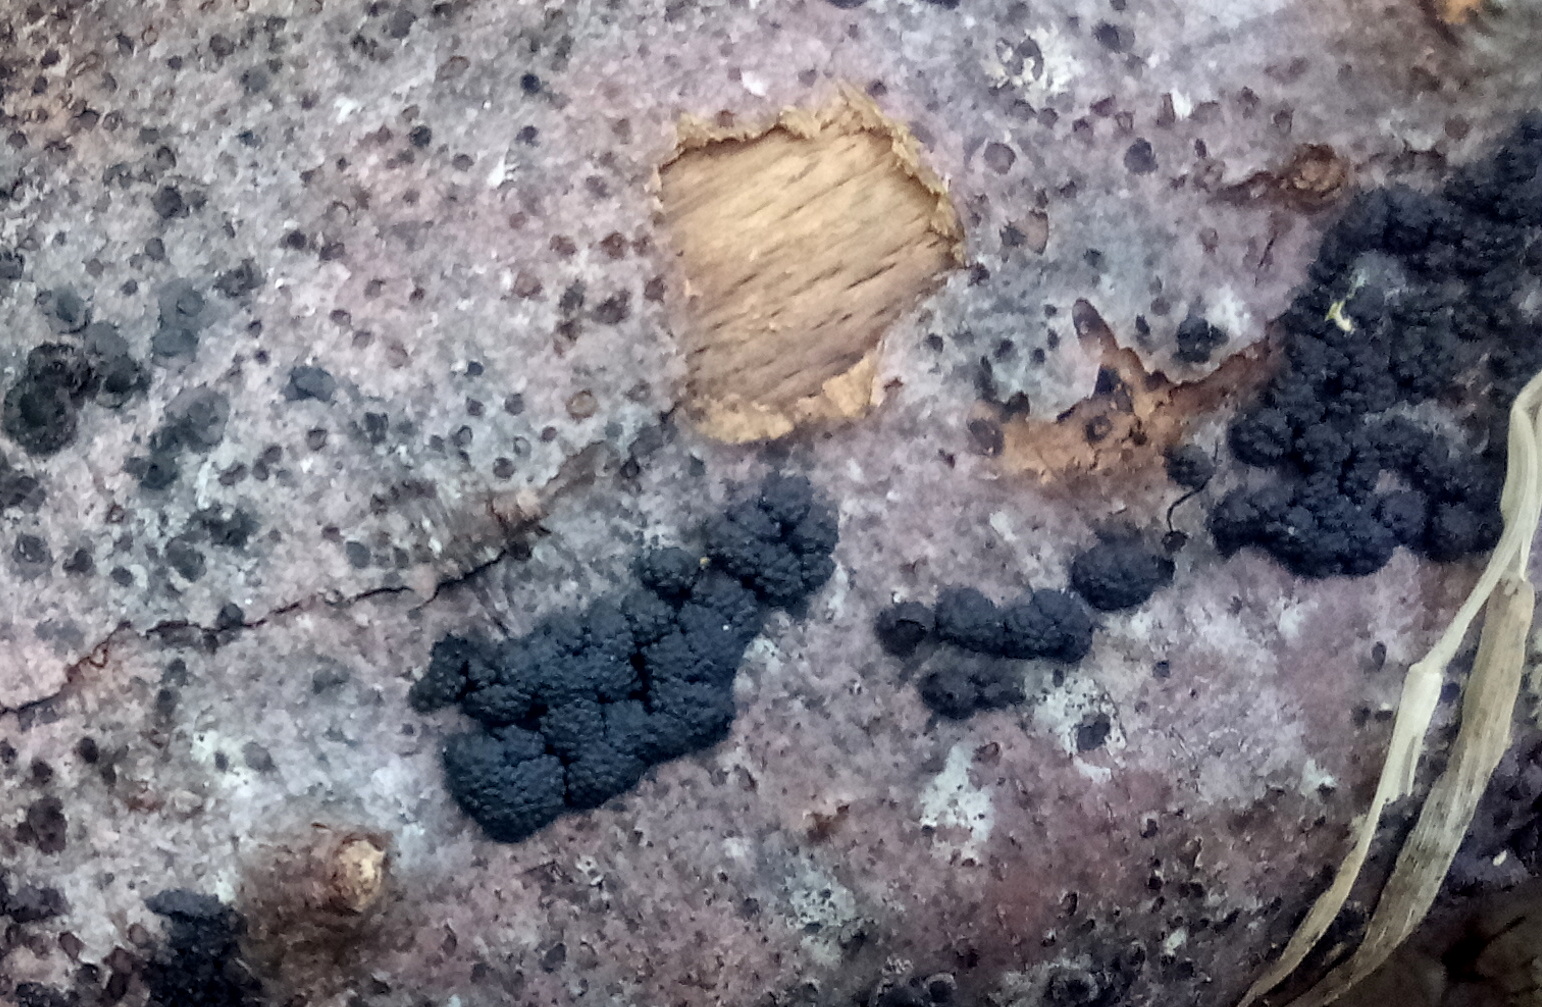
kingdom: Fungi
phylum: Ascomycota
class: Sordariomycetes
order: Xylariales
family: Hypoxylaceae
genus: Jackrogersella
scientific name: Jackrogersella cohaerens
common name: sammenflydende kulbær
